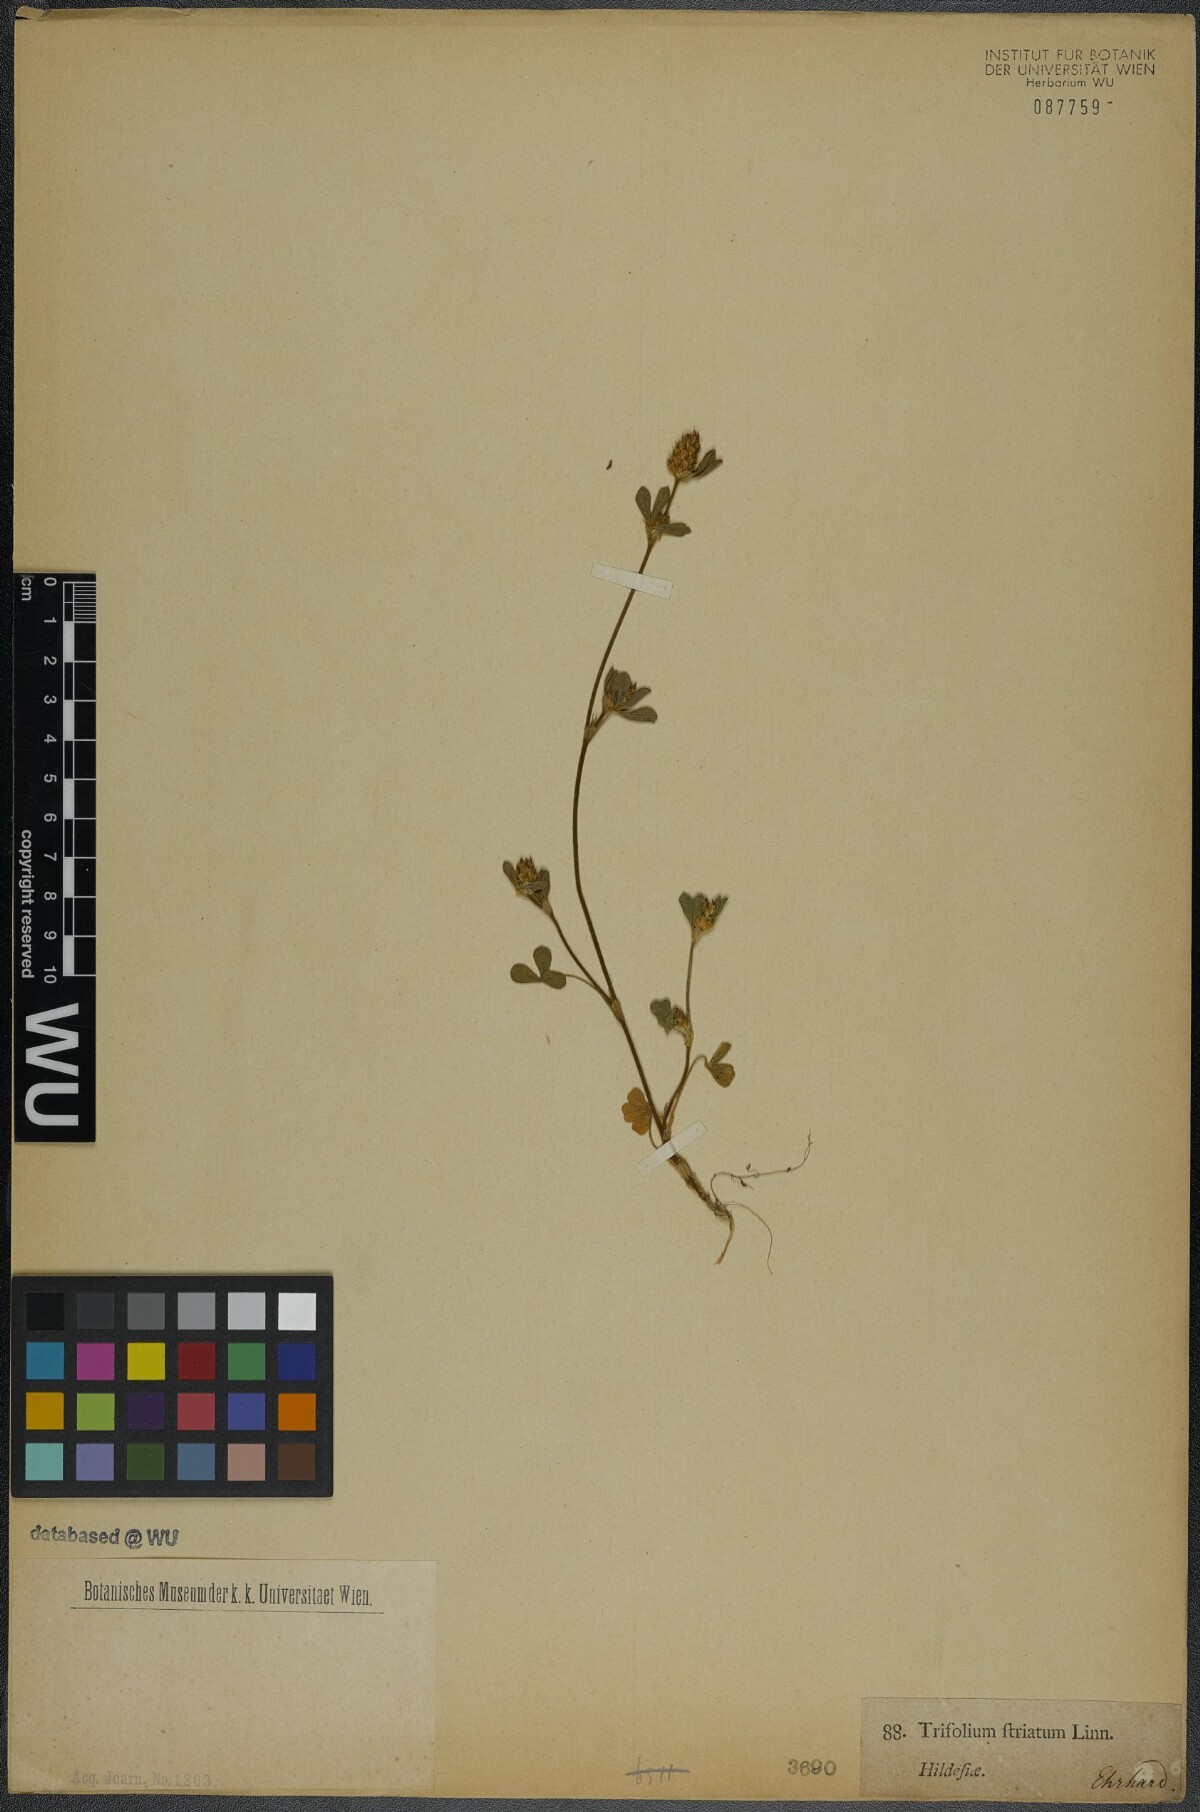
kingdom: Plantae
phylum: Tracheophyta
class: Magnoliopsida
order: Fabales
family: Fabaceae
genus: Trifolium
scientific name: Trifolium striatum
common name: Knotted clover
